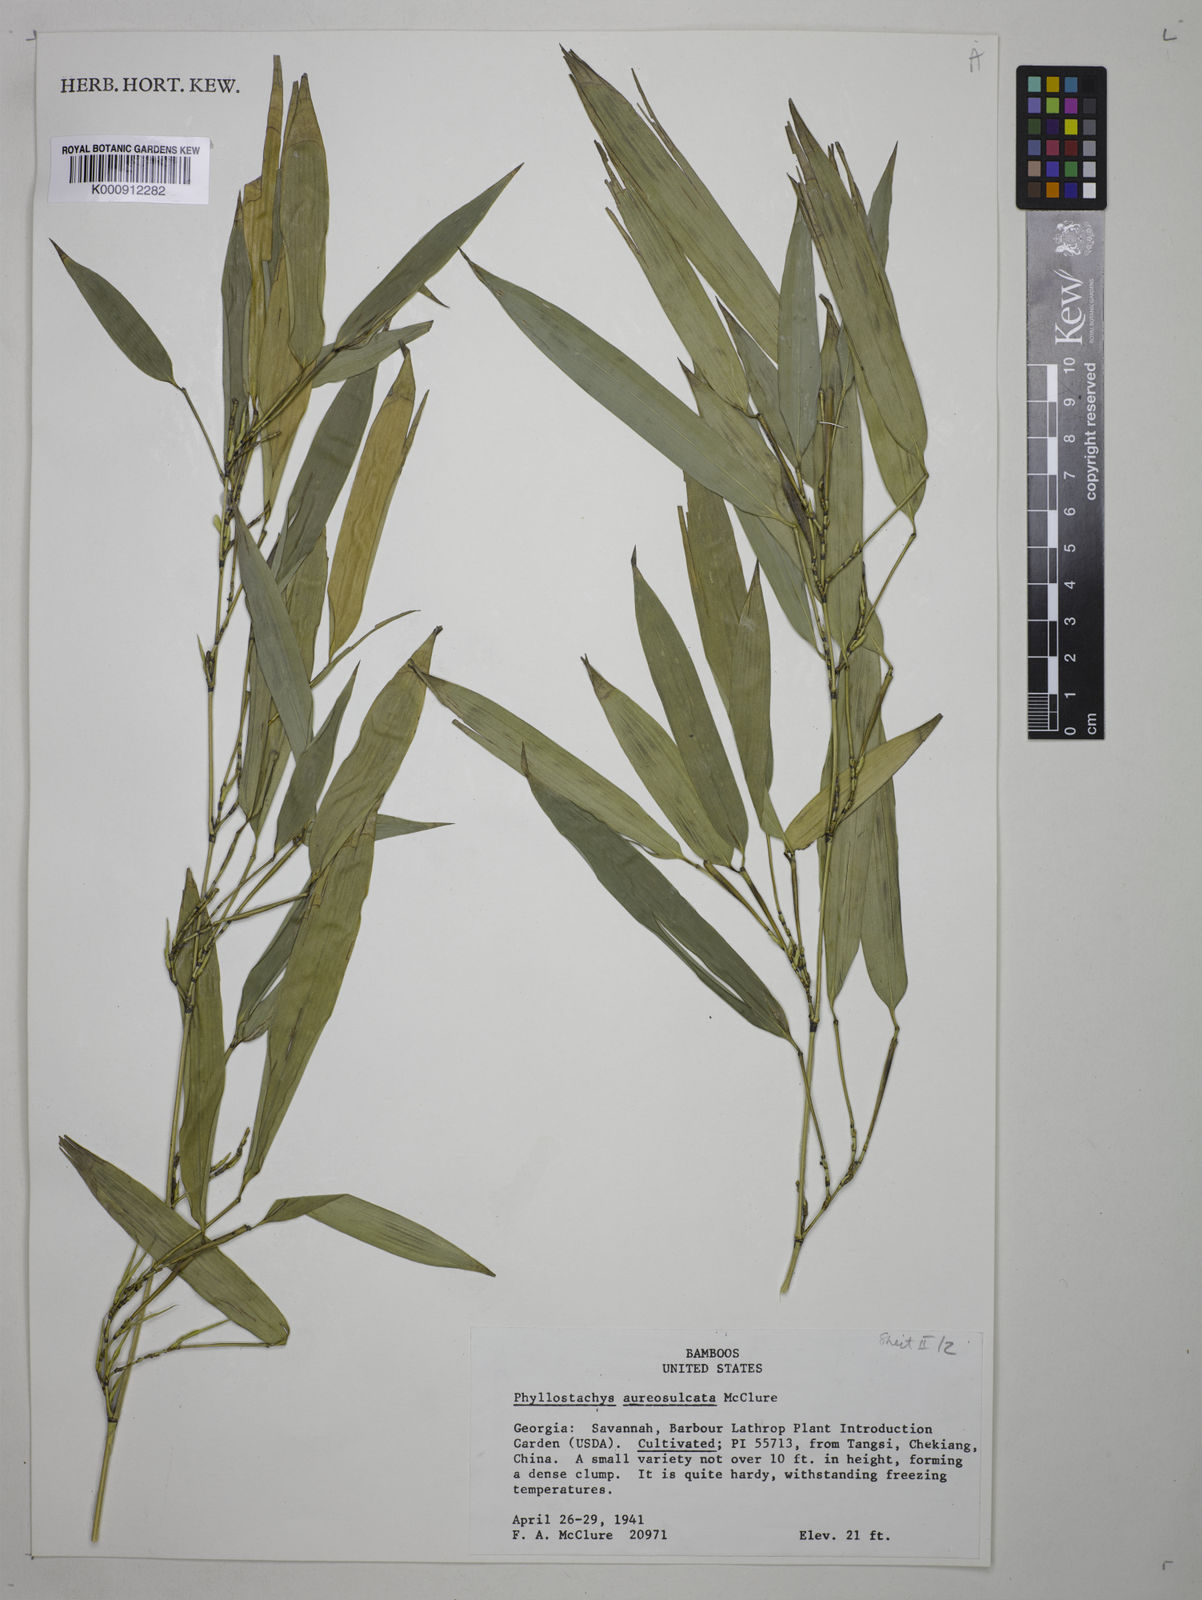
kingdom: Plantae
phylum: Tracheophyta
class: Liliopsida
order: Poales
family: Poaceae
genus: Phyllostachys
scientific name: Phyllostachys aureosulcata
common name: Yellow groove bamboo
